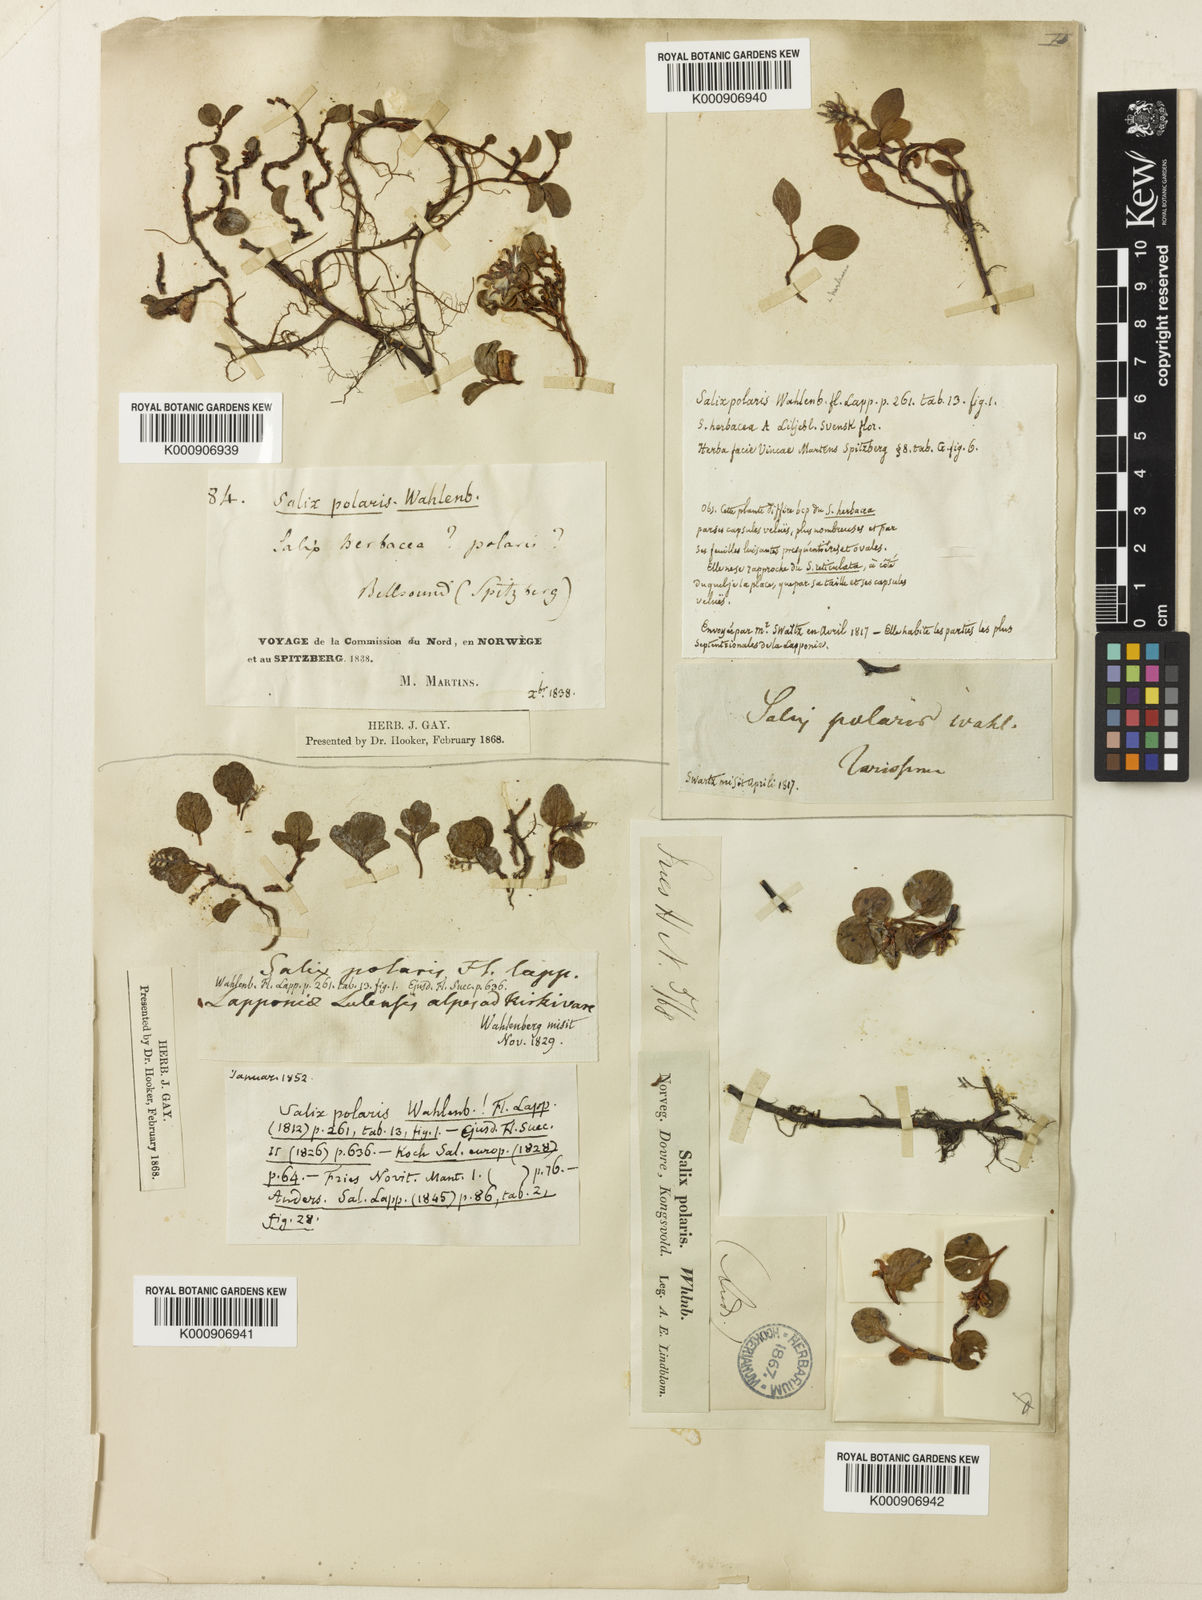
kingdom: Plantae
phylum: Tracheophyta
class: Magnoliopsida
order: Malpighiales
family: Salicaceae
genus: Salix
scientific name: Salix polaris
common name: Polar willow
